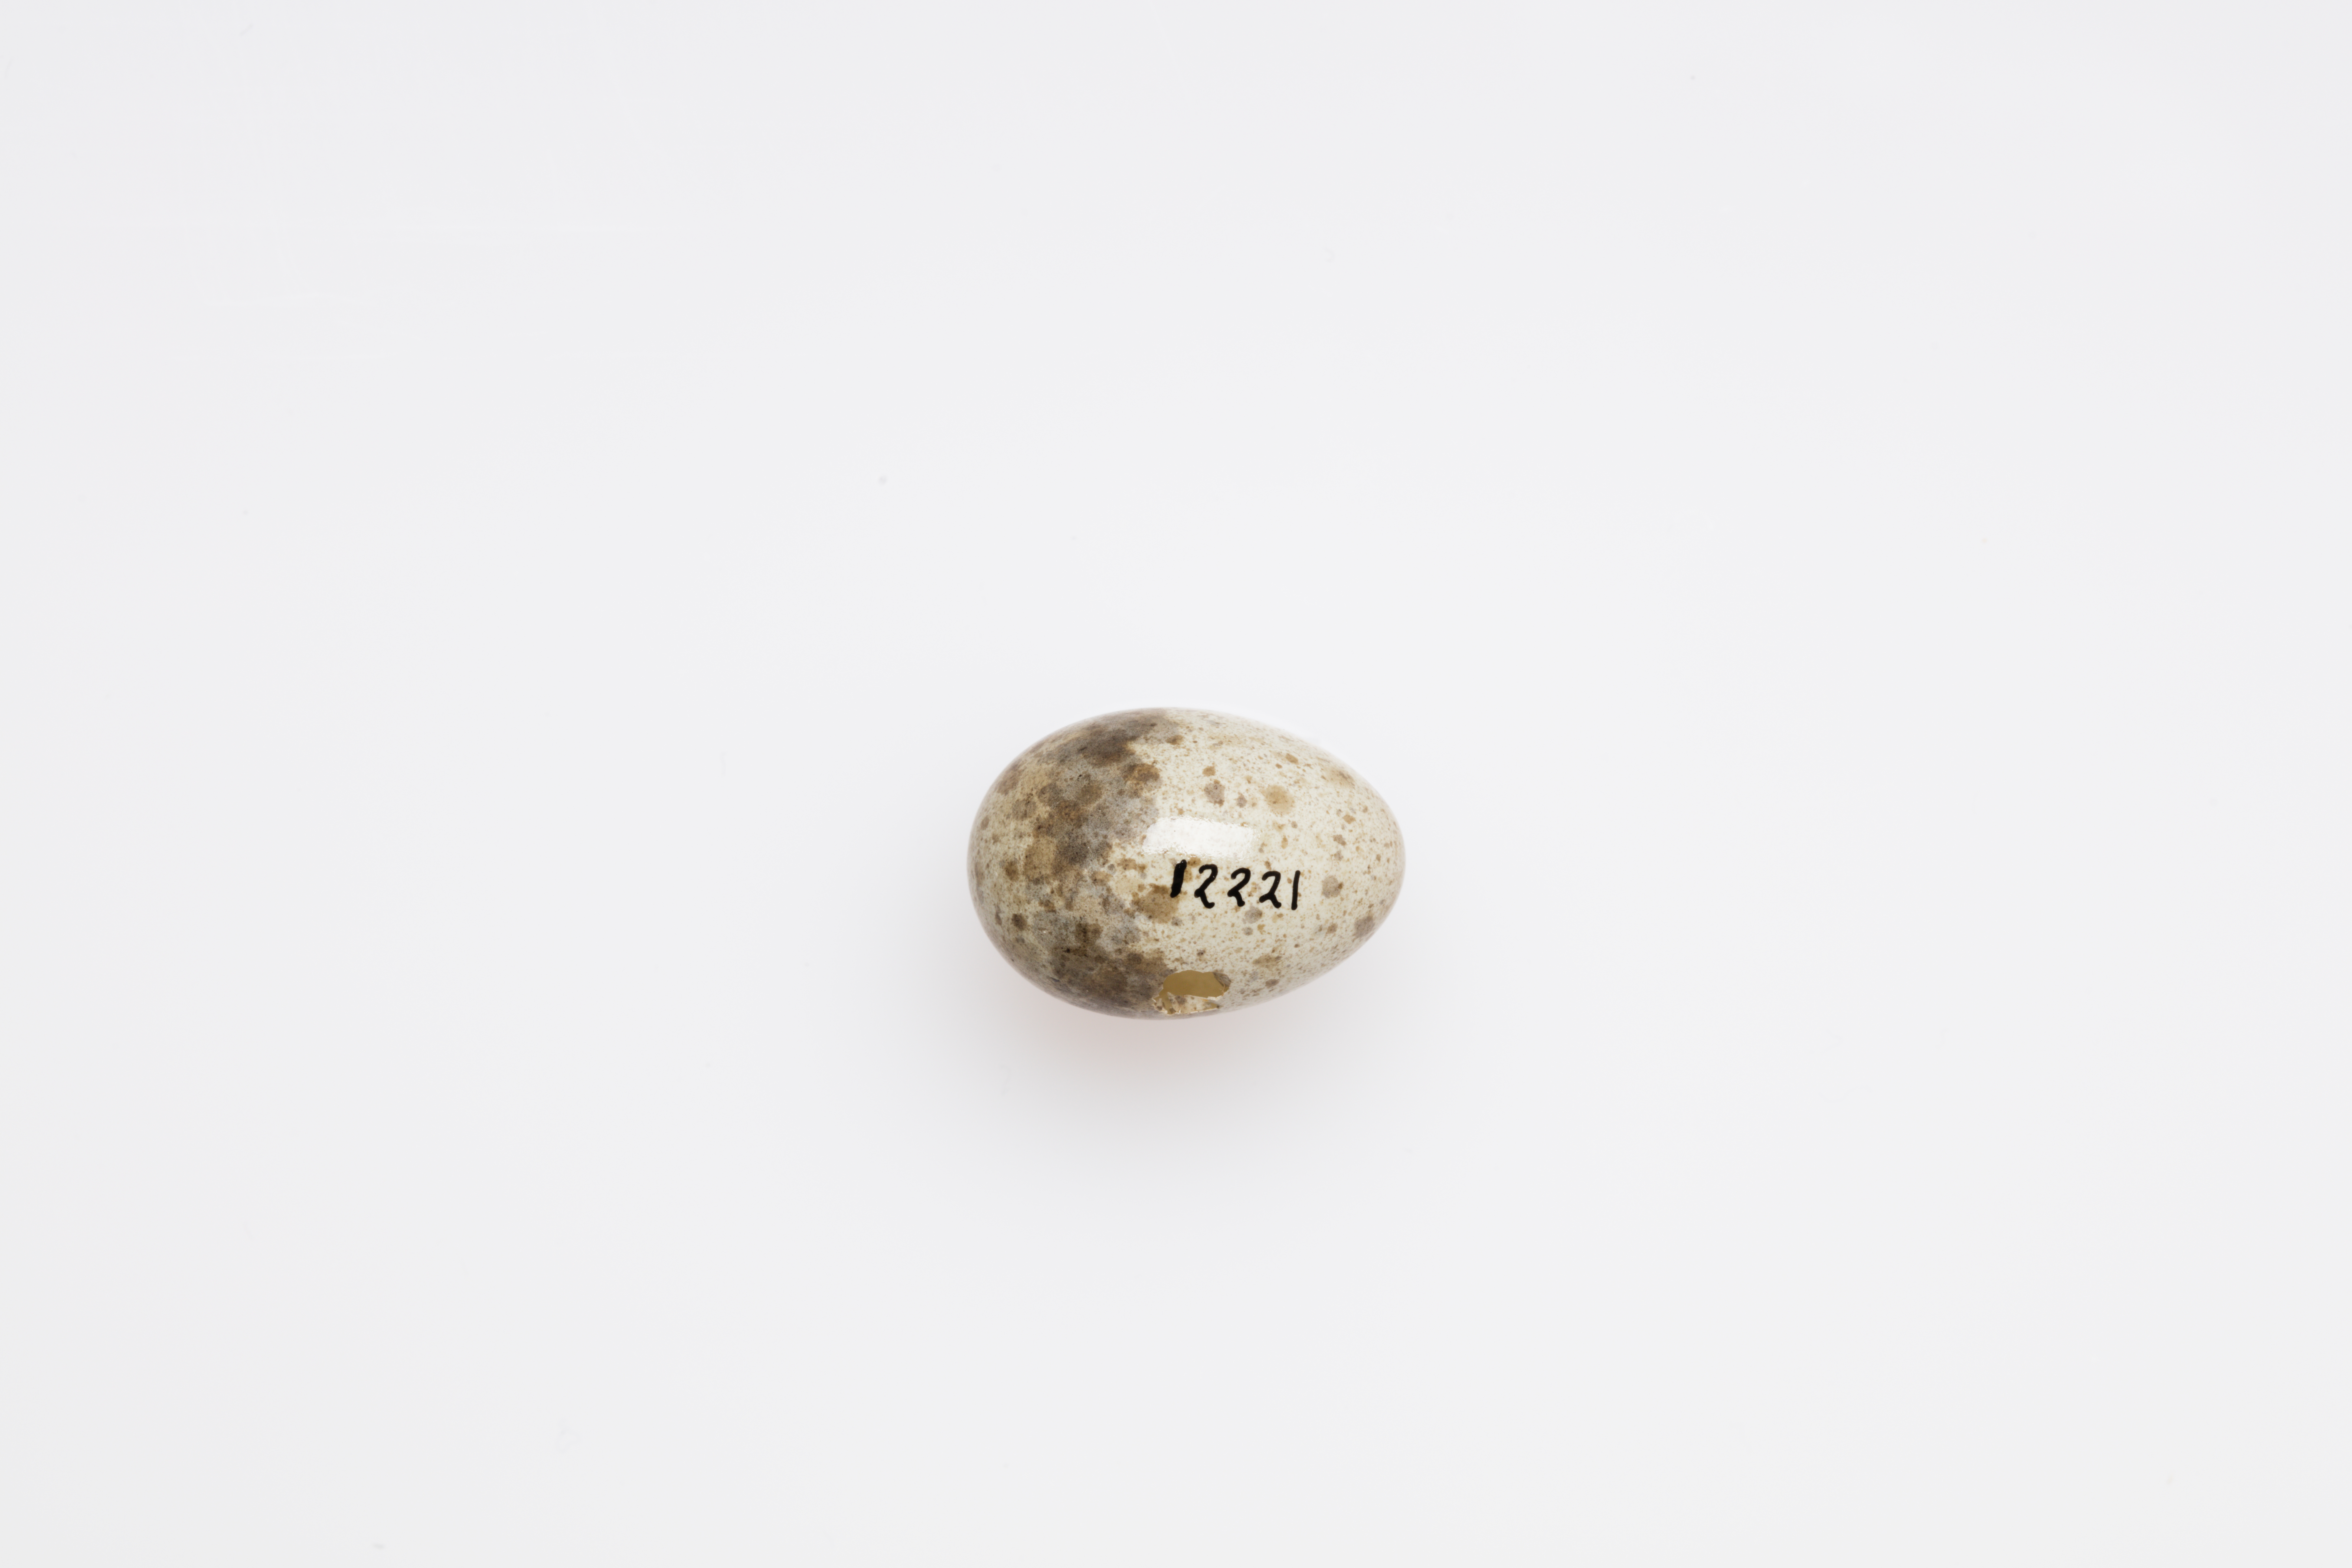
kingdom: Animalia
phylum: Chordata
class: Aves
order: Passeriformes
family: Locustellidae
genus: Locustella
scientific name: Locustella luscinioides
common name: Savi's warbler
